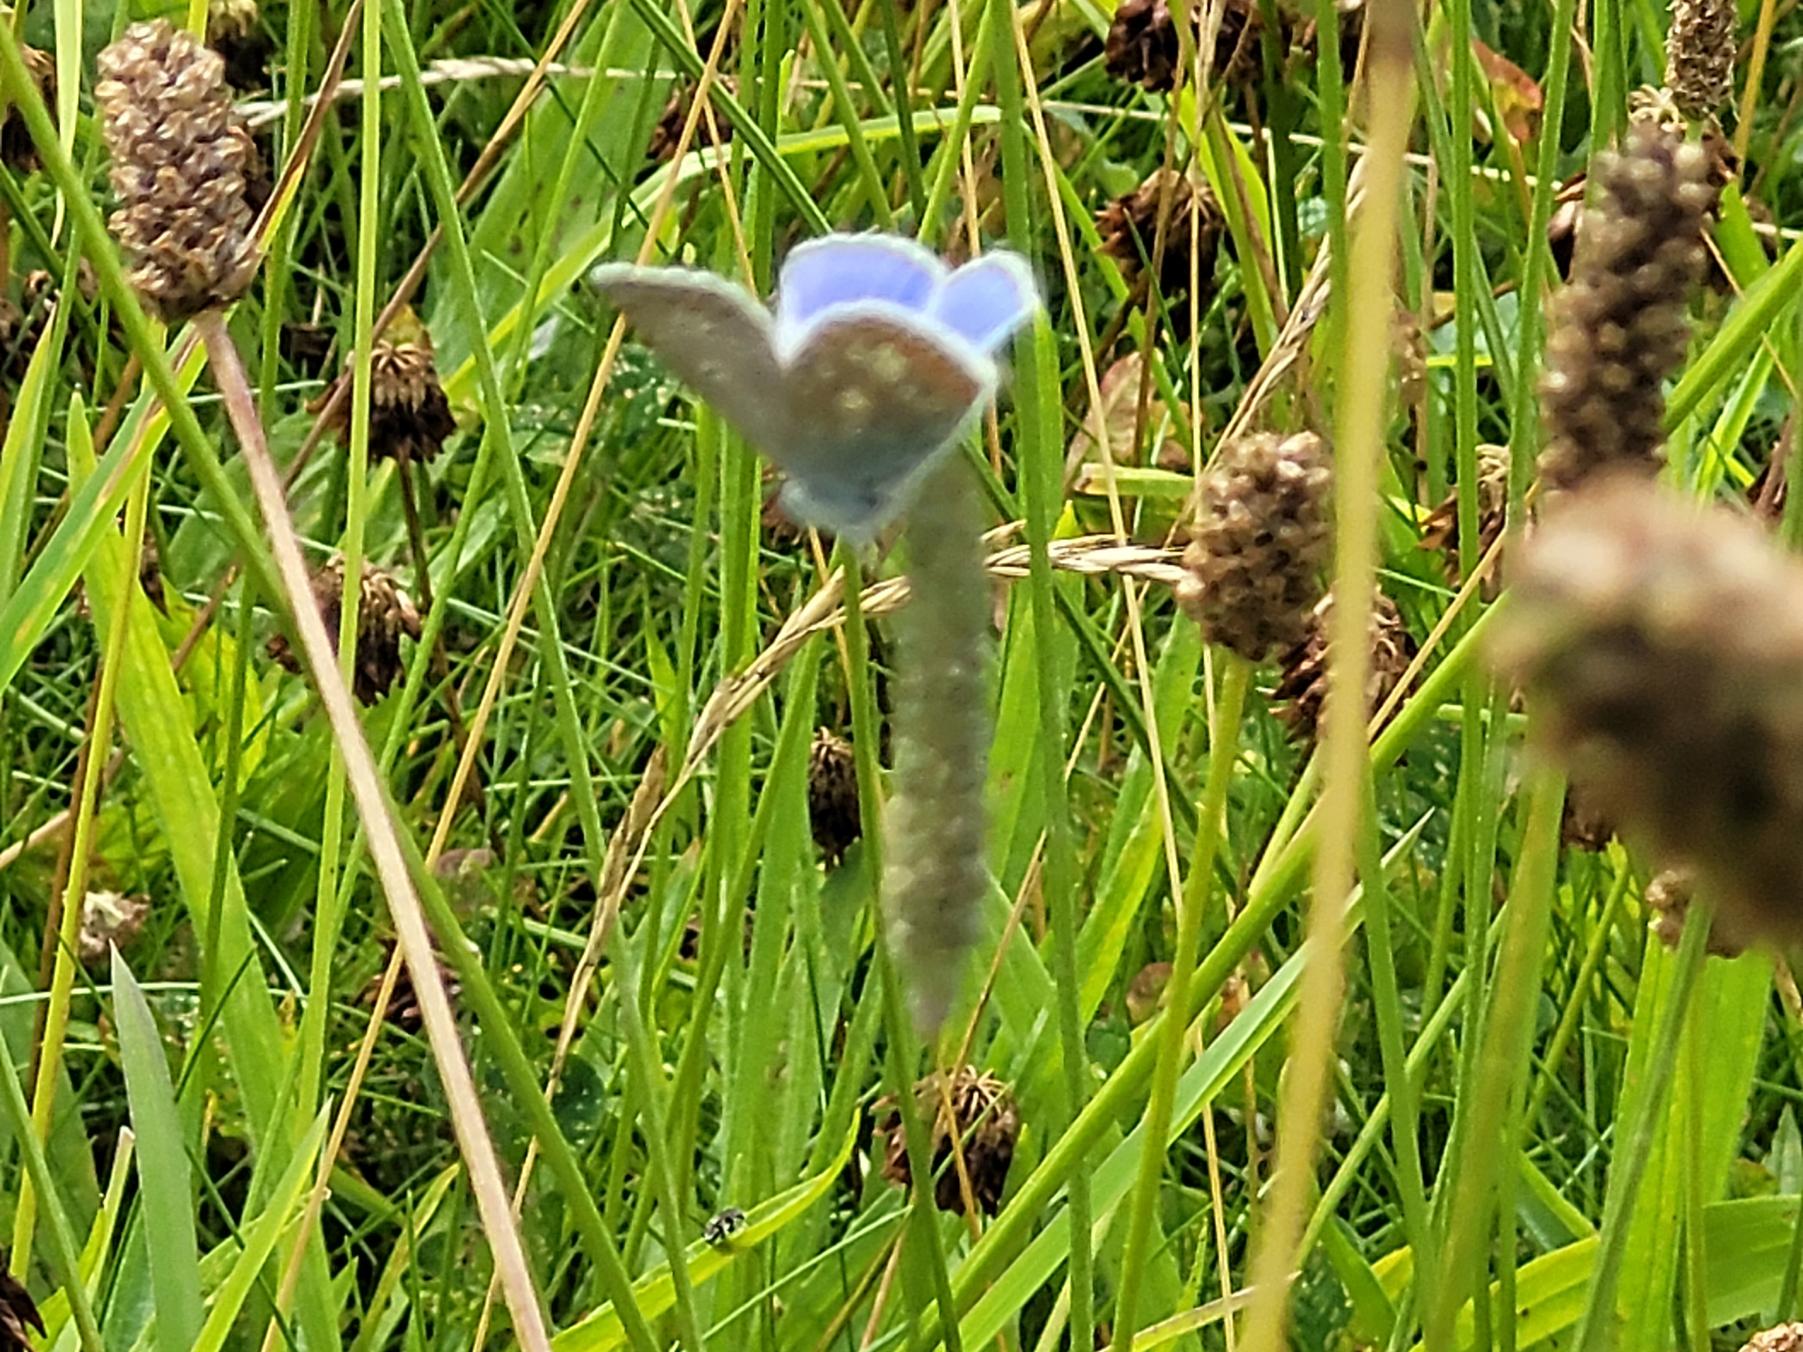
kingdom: Animalia
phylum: Arthropoda
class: Insecta
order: Lepidoptera
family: Lycaenidae
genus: Polyommatus
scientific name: Polyommatus icarus
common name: Almindelig blåfugl
